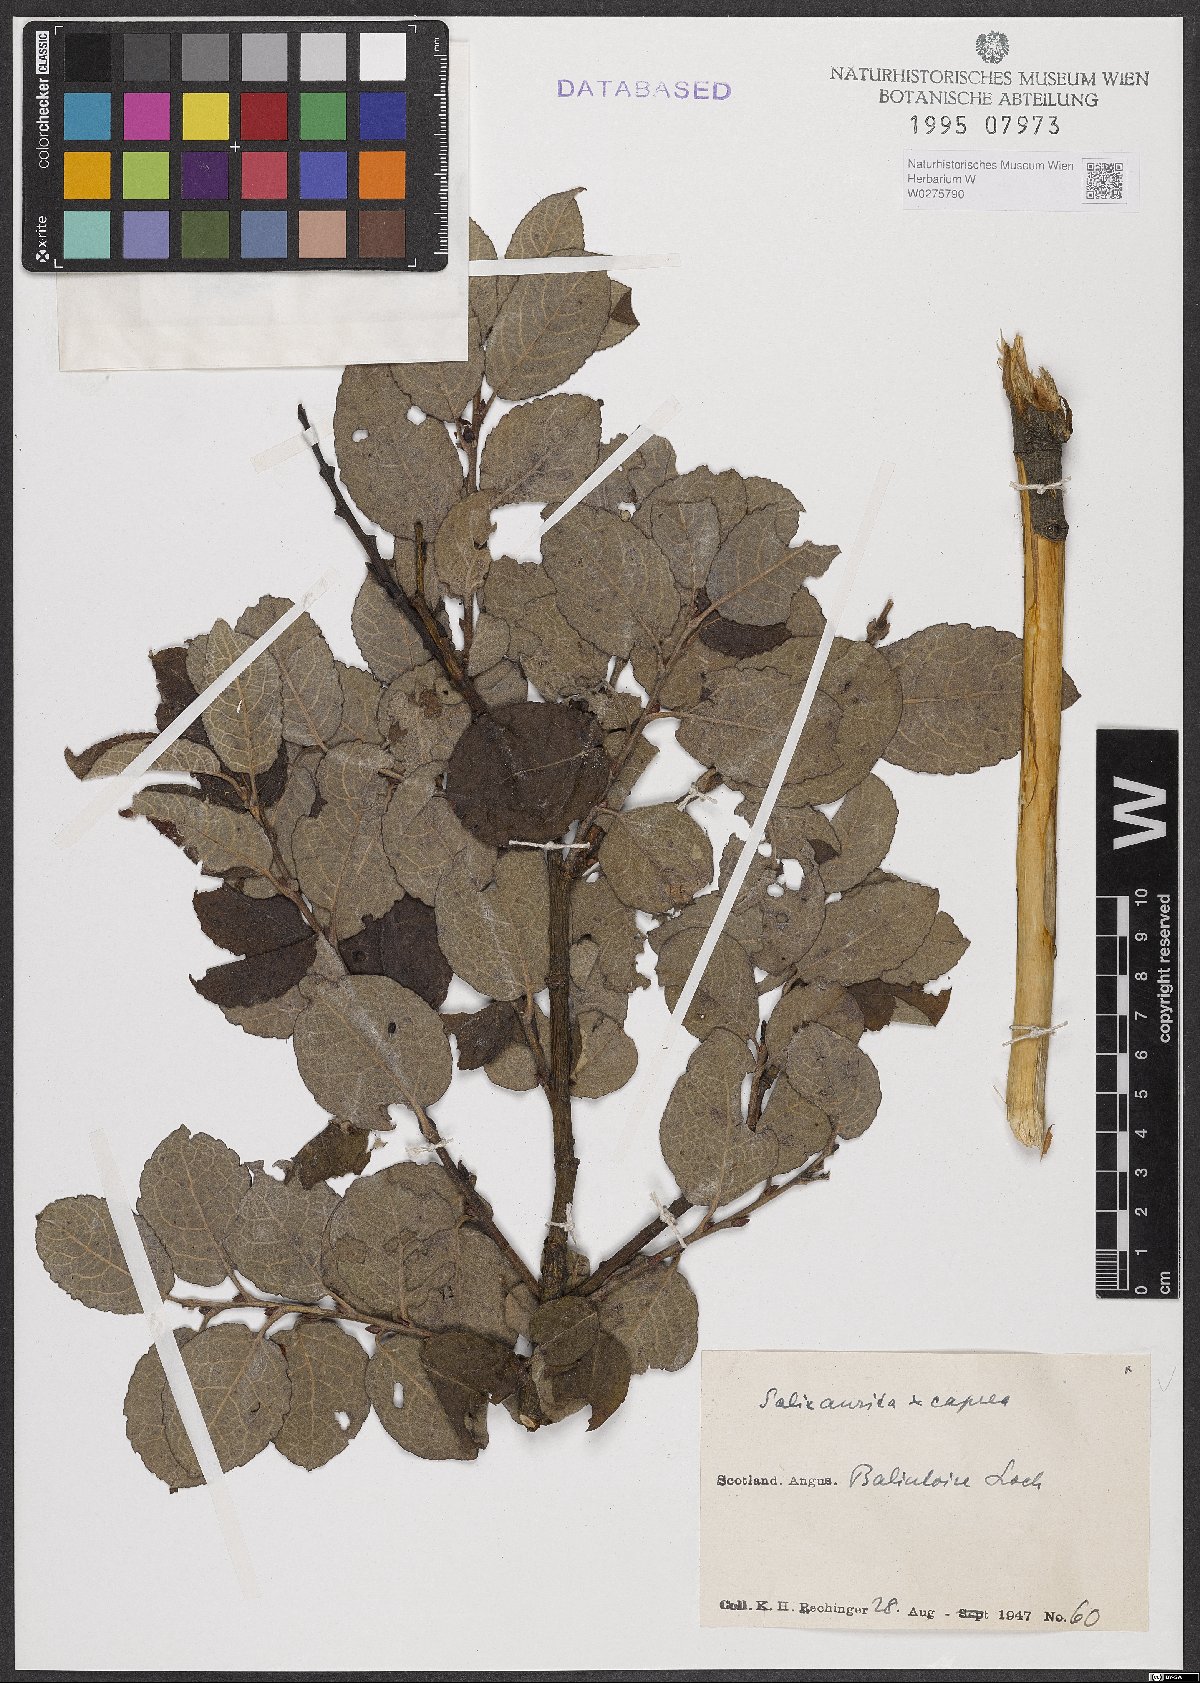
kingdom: Plantae
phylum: Tracheophyta
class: Magnoliopsida
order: Malpighiales
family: Salicaceae
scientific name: Salicaceae
